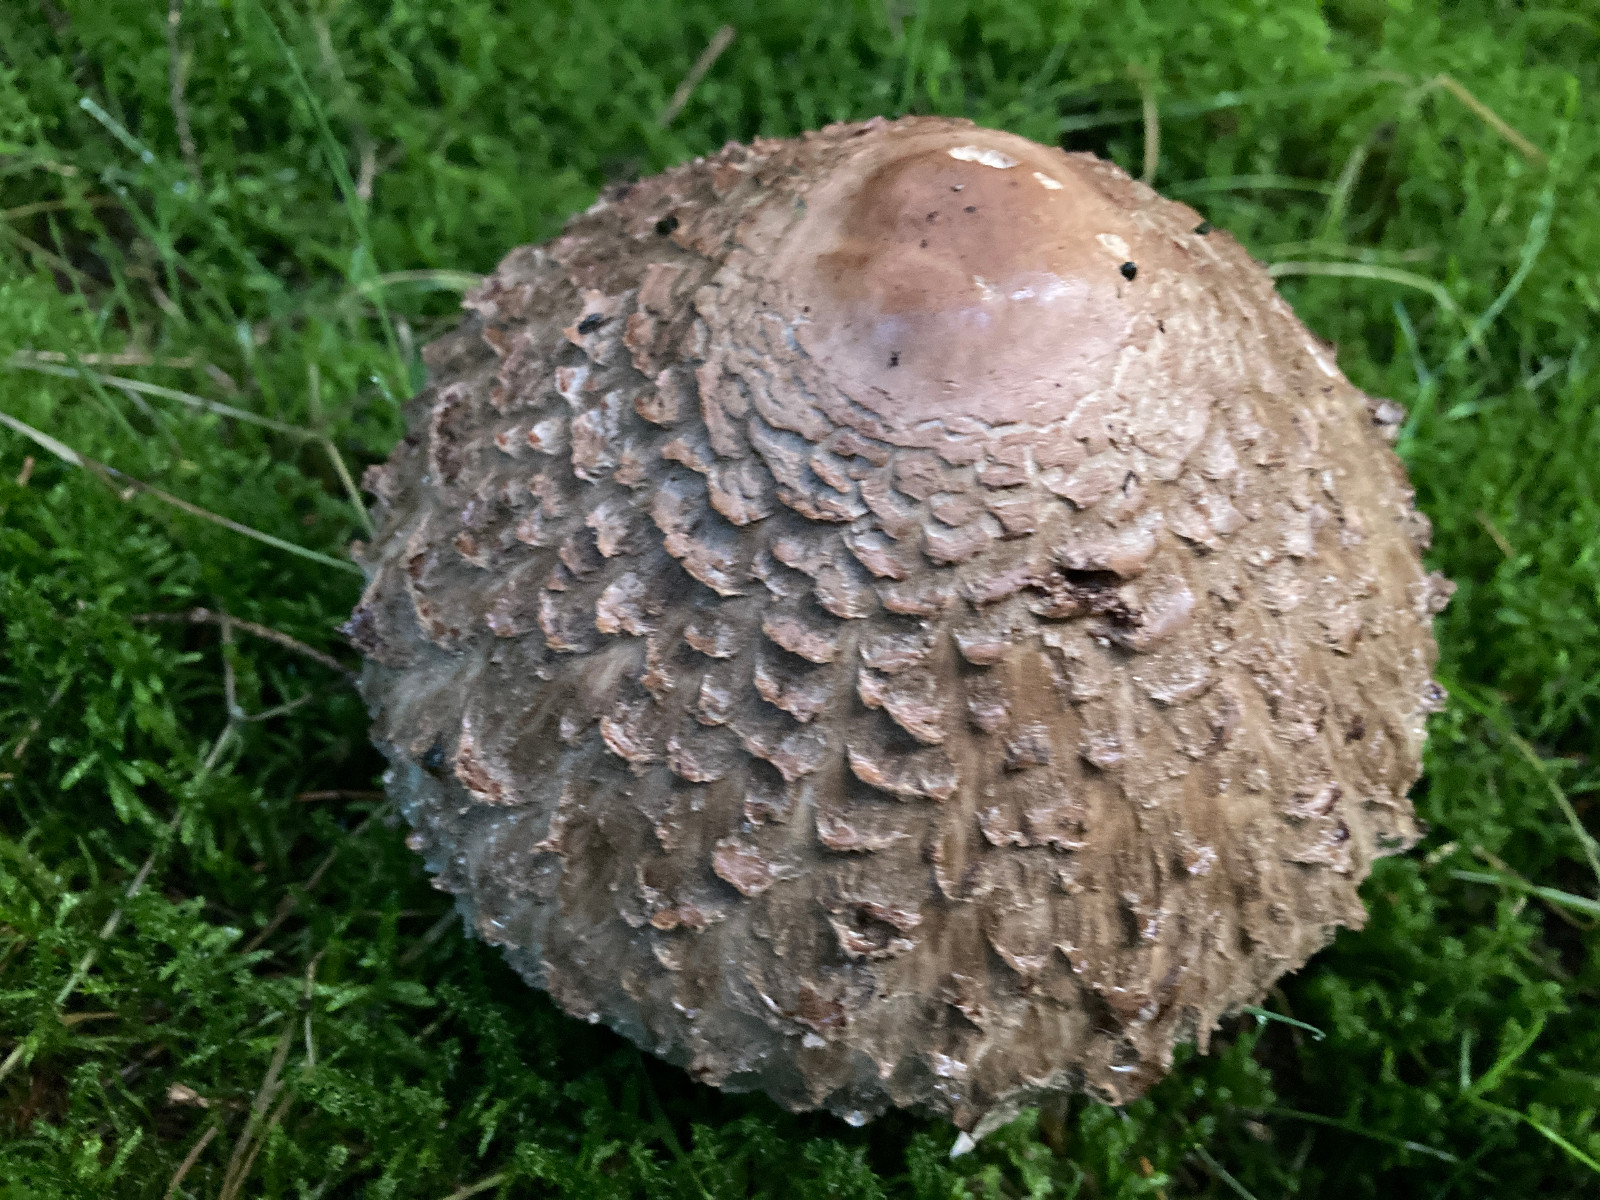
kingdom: Fungi
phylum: Basidiomycota
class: Agaricomycetes
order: Agaricales
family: Agaricaceae
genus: Chlorophyllum
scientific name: Chlorophyllum olivieri
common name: almindelig rabarberhat
